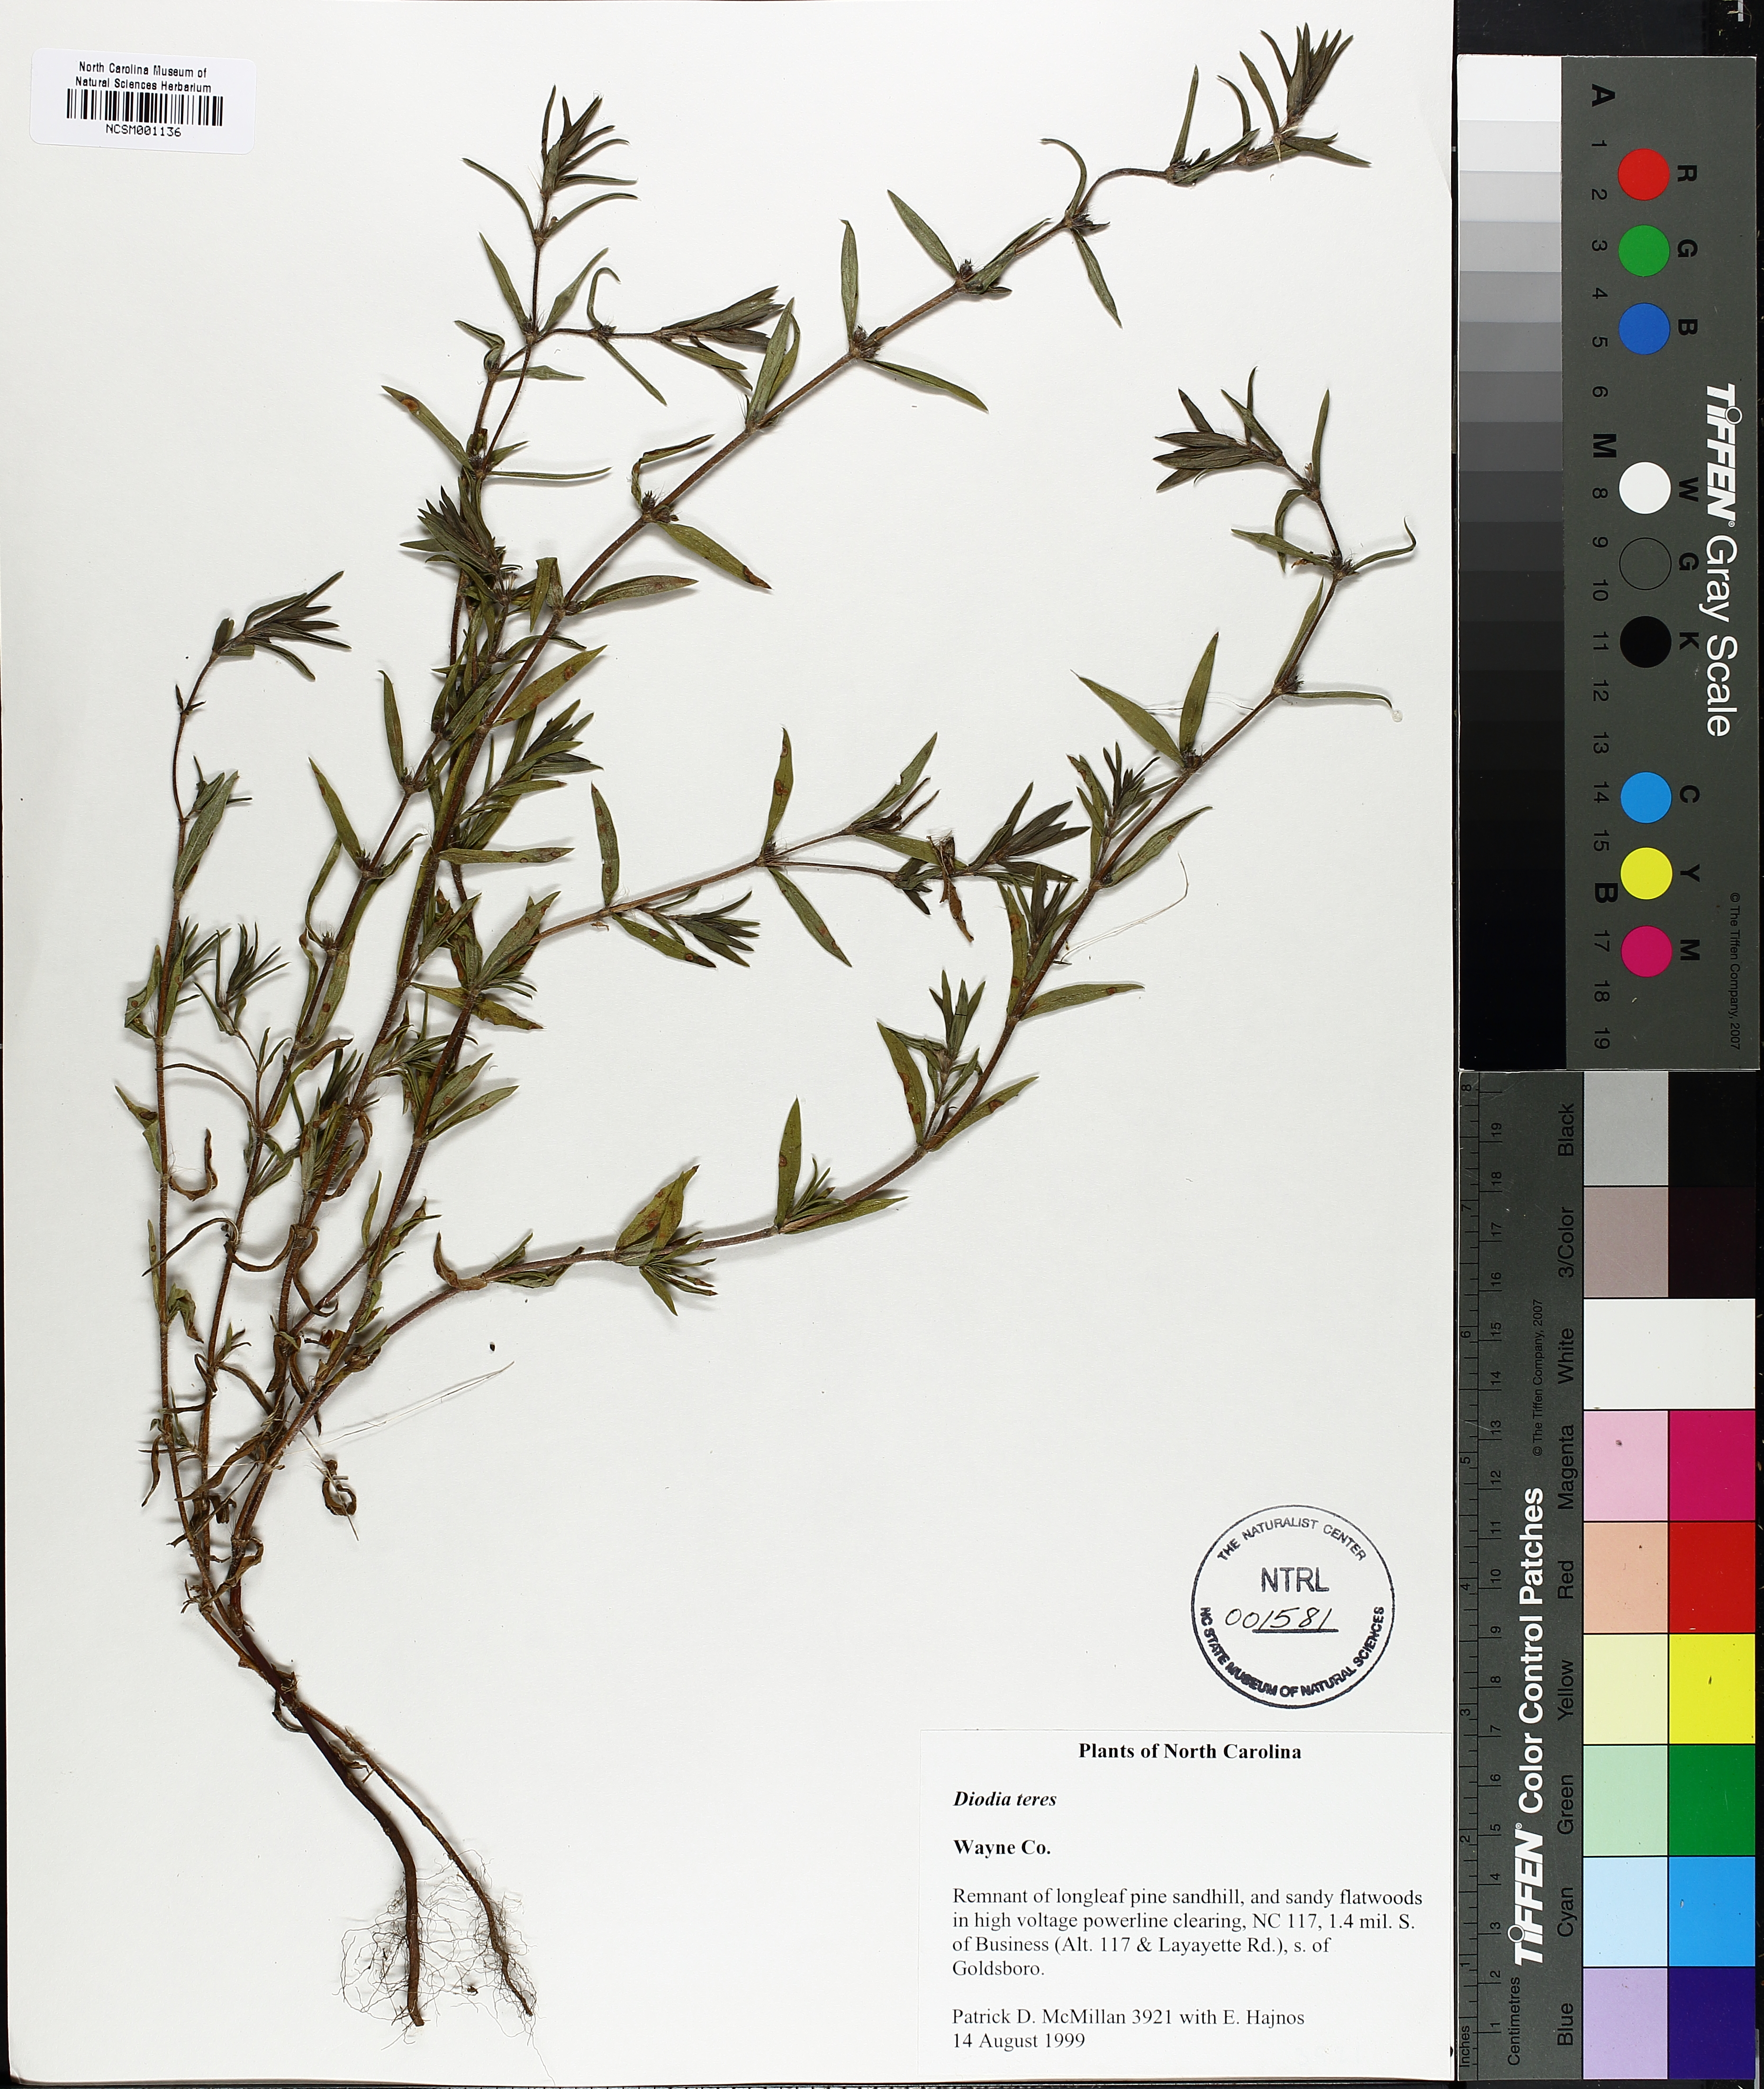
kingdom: Plantae
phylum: Tracheophyta
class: Magnoliopsida
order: Gentianales
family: Rubiaceae
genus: Hexasepalum
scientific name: Hexasepalum teres
